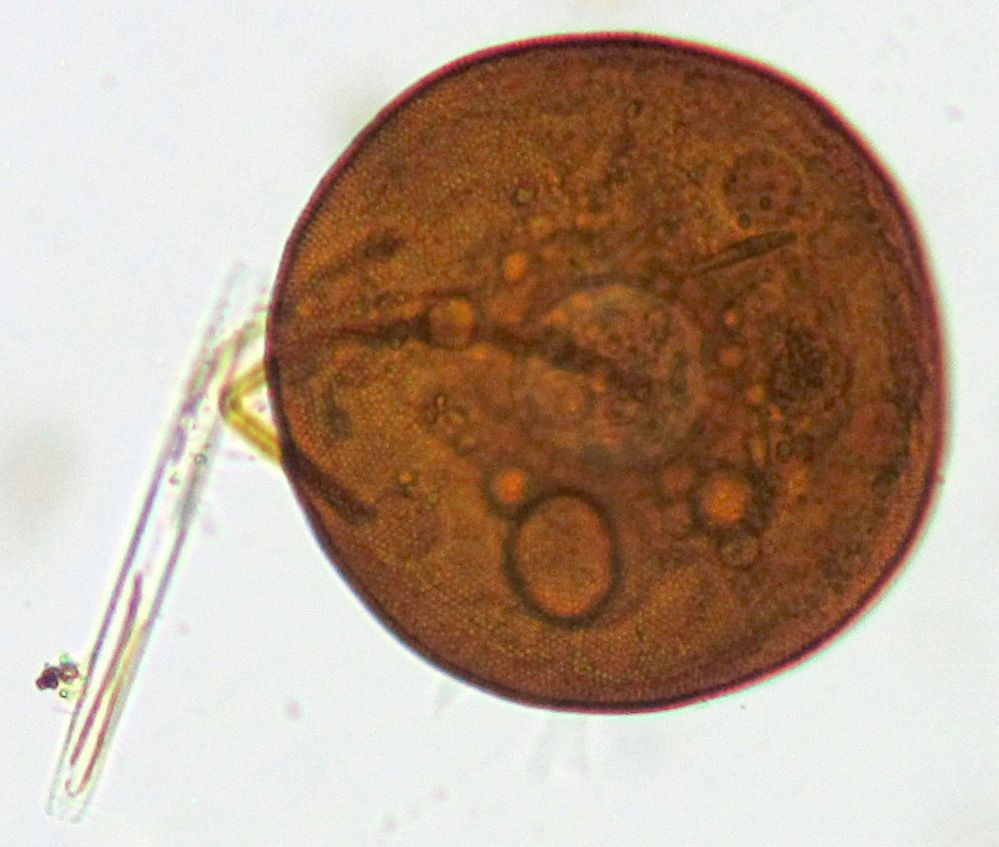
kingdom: Protozoa
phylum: Amoebozoa
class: Lobosa
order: Arcellinida
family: Arcellidae
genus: Arcella
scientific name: Arcella vulgaris
